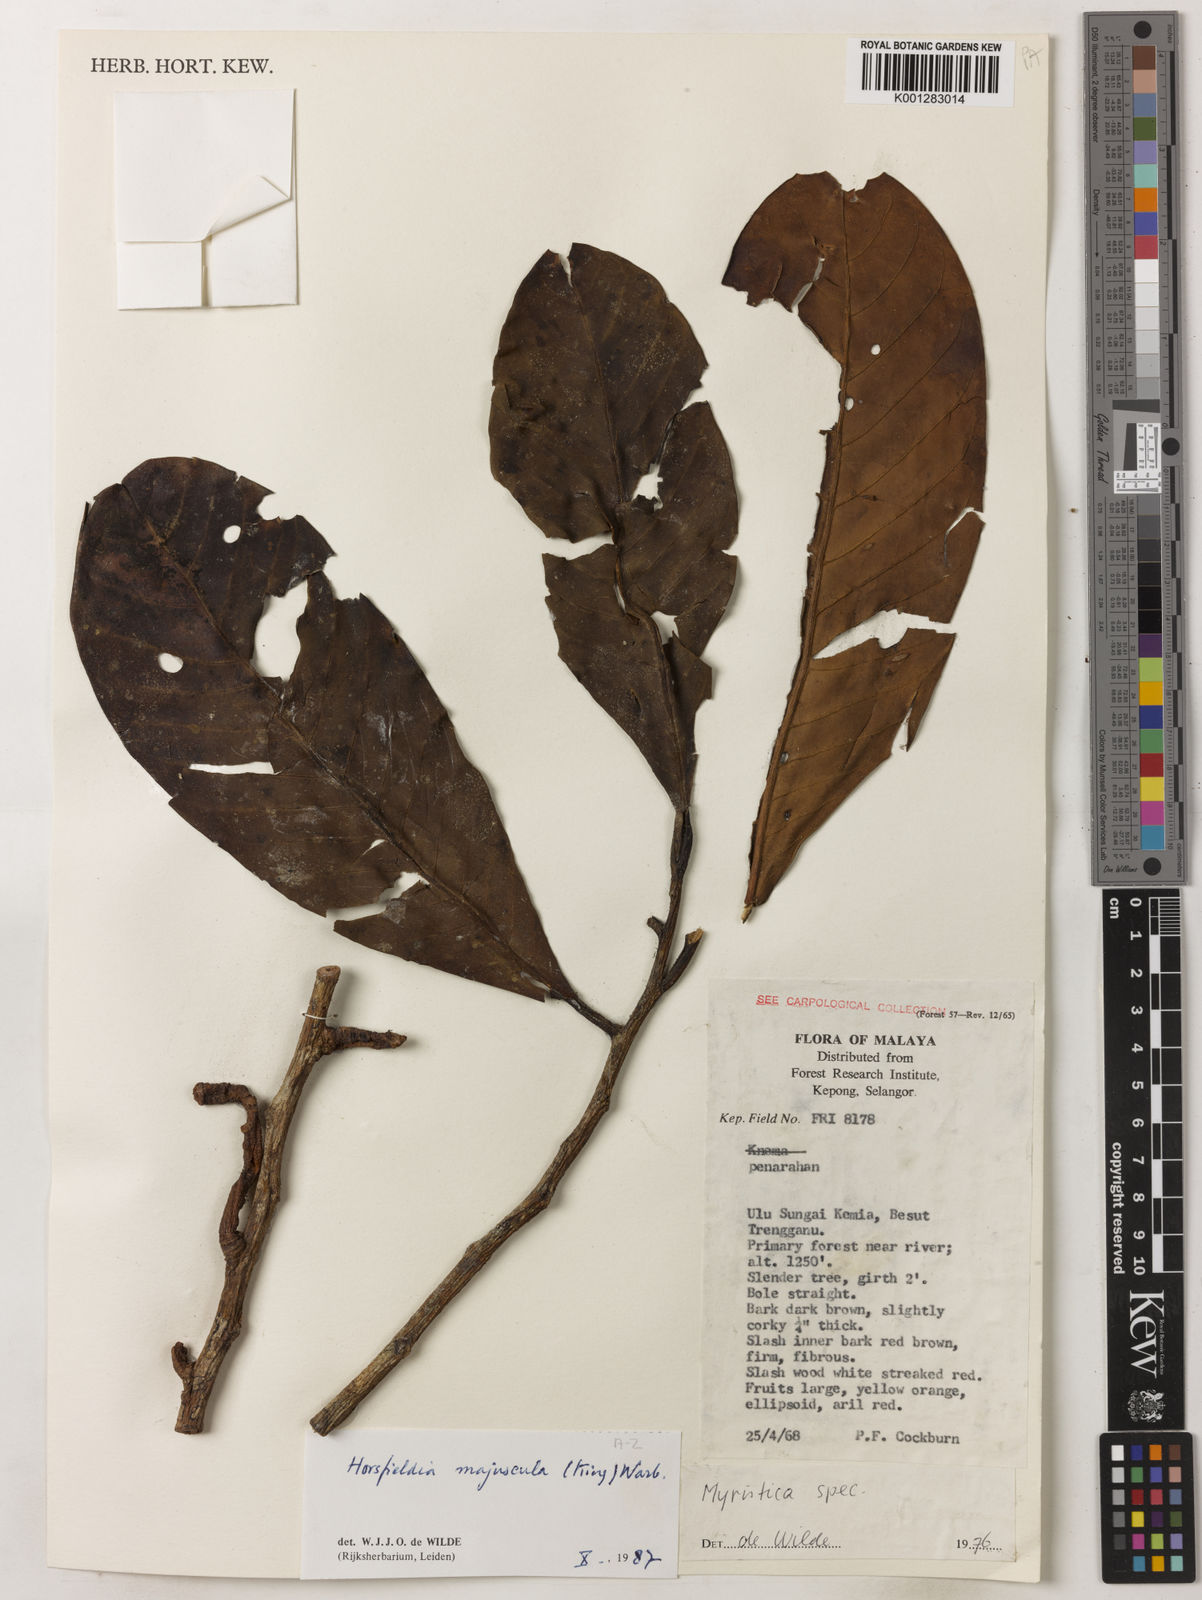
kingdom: Plantae
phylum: Tracheophyta
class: Magnoliopsida
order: Magnoliales
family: Myristicaceae
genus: Horsfieldia
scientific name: Horsfieldia majuscula
